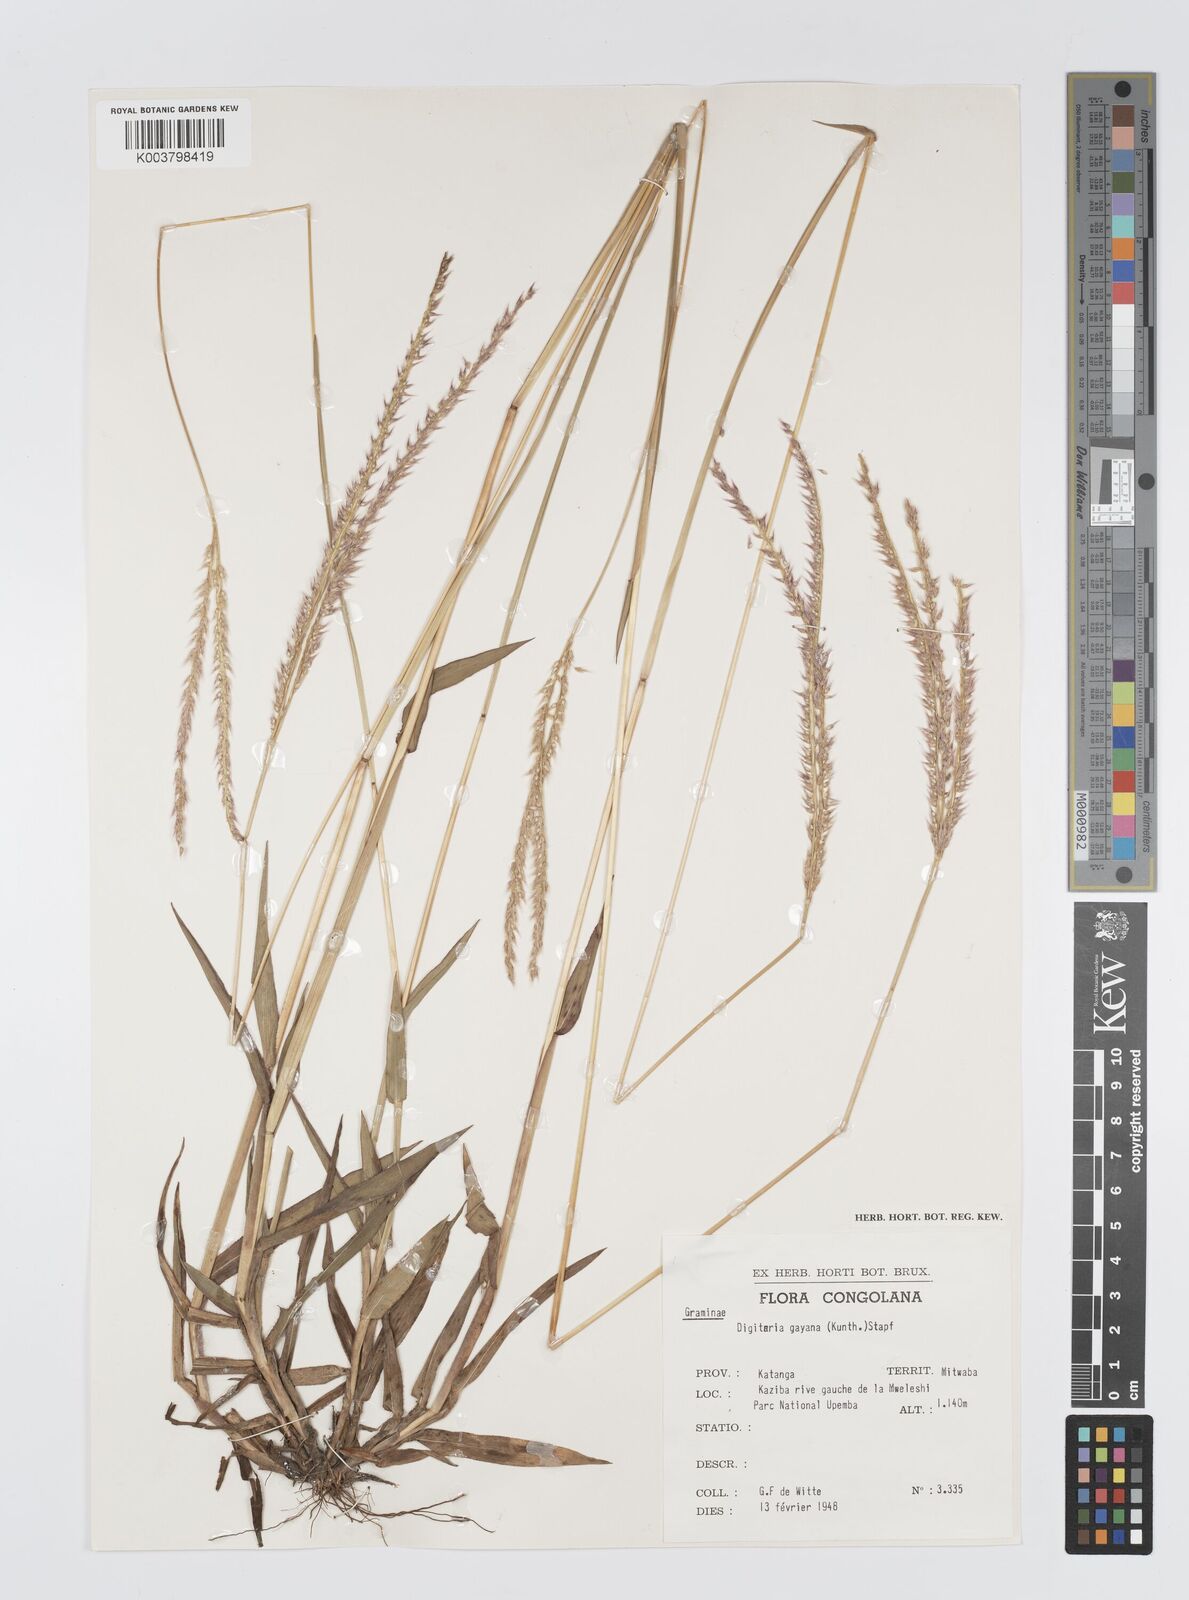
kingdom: Plantae
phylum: Tracheophyta
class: Liliopsida
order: Poales
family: Poaceae
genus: Digitaria
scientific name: Digitaria gayana
